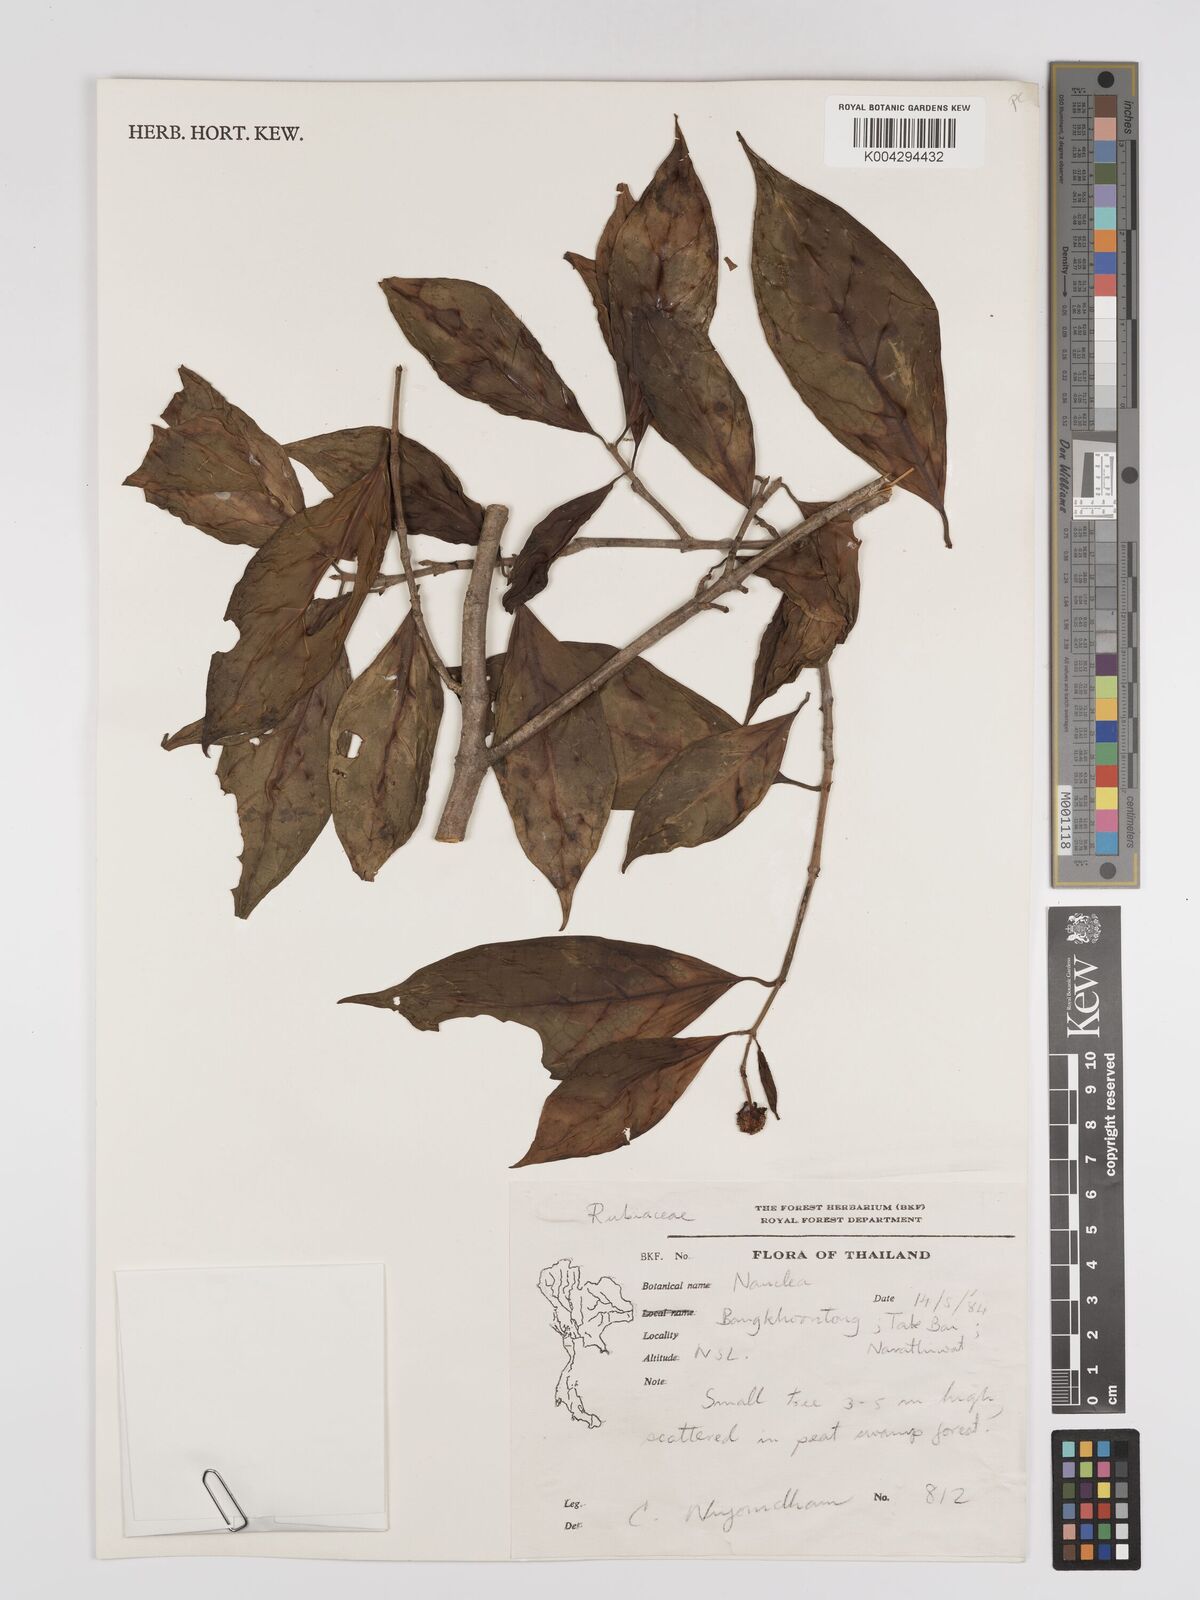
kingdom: Plantae
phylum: Tracheophyta
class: Magnoliopsida
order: Gentianales
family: Rubiaceae
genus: Nauclea
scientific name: Nauclea
